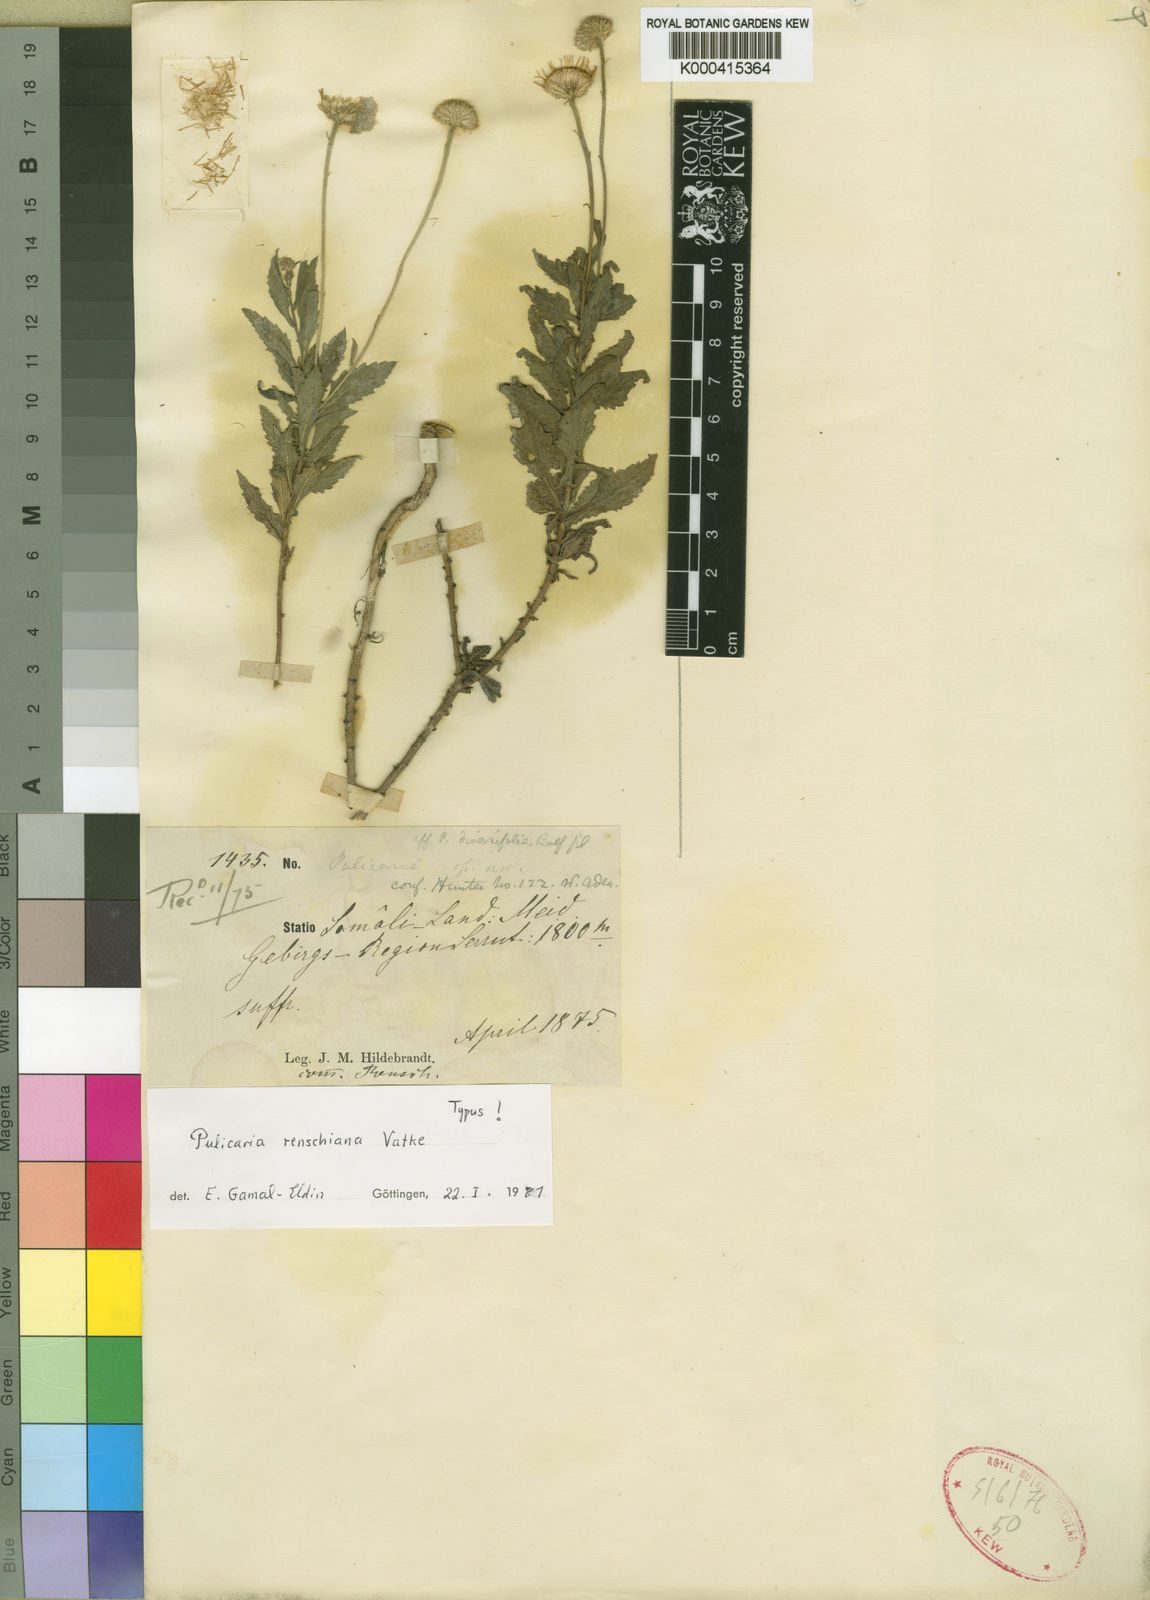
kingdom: Plantae
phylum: Tracheophyta
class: Magnoliopsida
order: Asterales
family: Asteraceae
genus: Pulicaria
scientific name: Pulicaria renschiana
